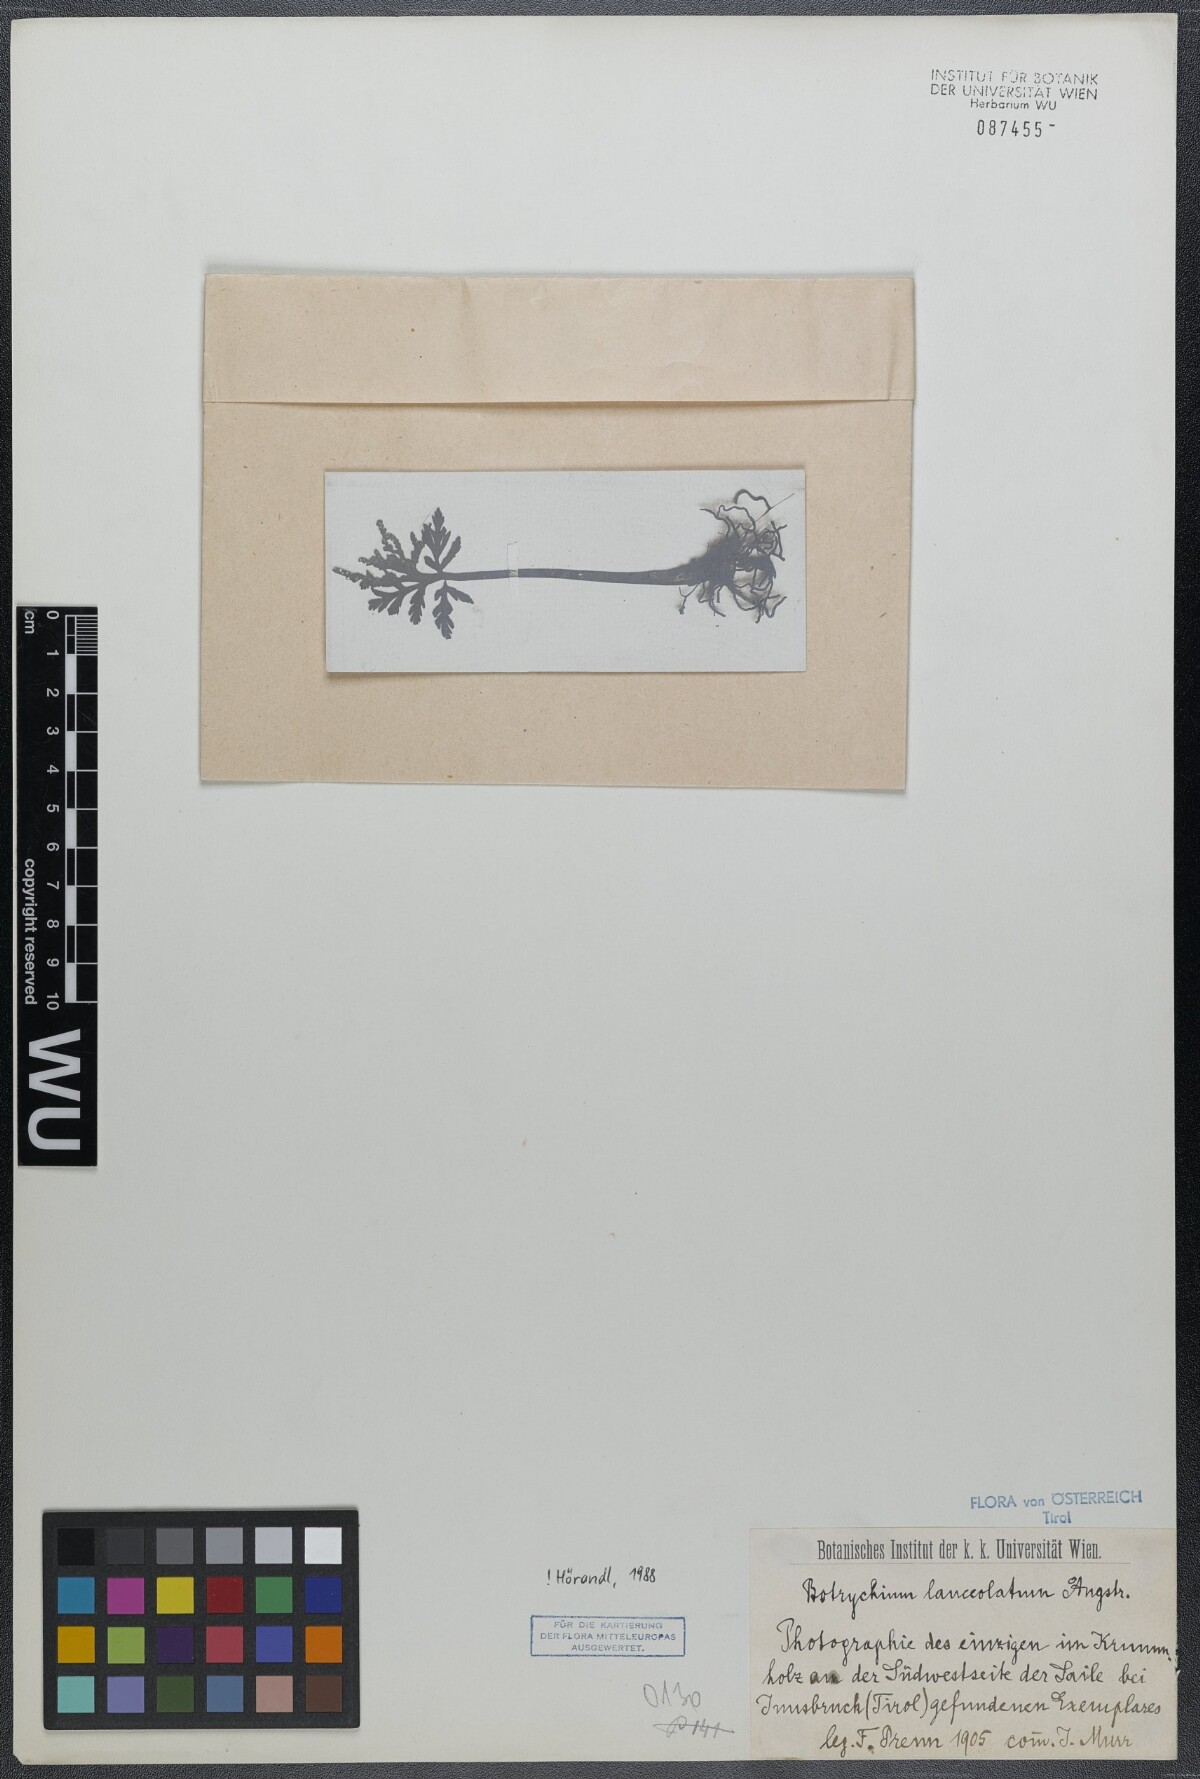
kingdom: Plantae
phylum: Tracheophyta
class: Polypodiopsida
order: Ophioglossales
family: Ophioglossaceae
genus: Botrychium
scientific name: Botrychium lanceolatum
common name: Lance-leaved moonwort
